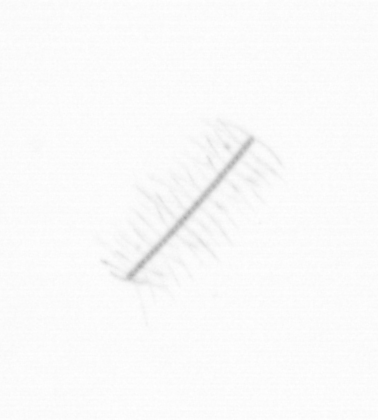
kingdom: Chromista
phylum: Ochrophyta
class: Bacillariophyceae
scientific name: Bacillariophyceae
